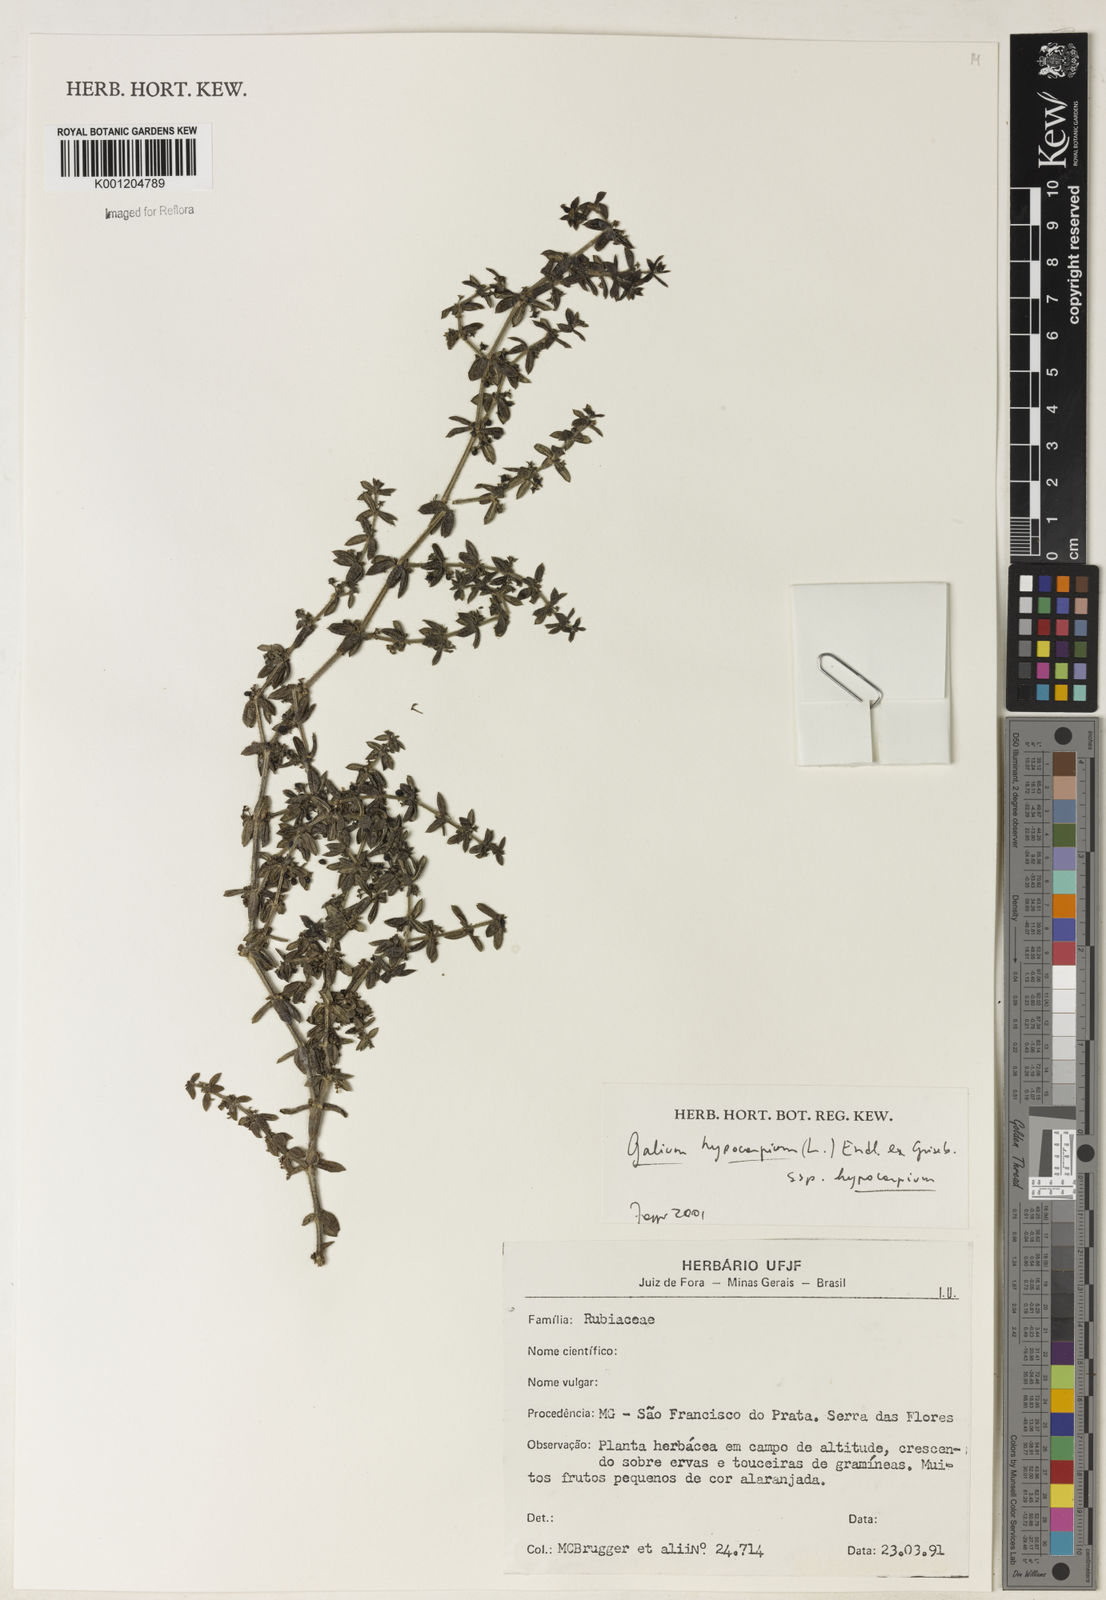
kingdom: Plantae
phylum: Tracheophyta
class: Magnoliopsida
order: Gentianales
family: Rubiaceae
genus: Galium
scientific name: Galium hypocarpium
